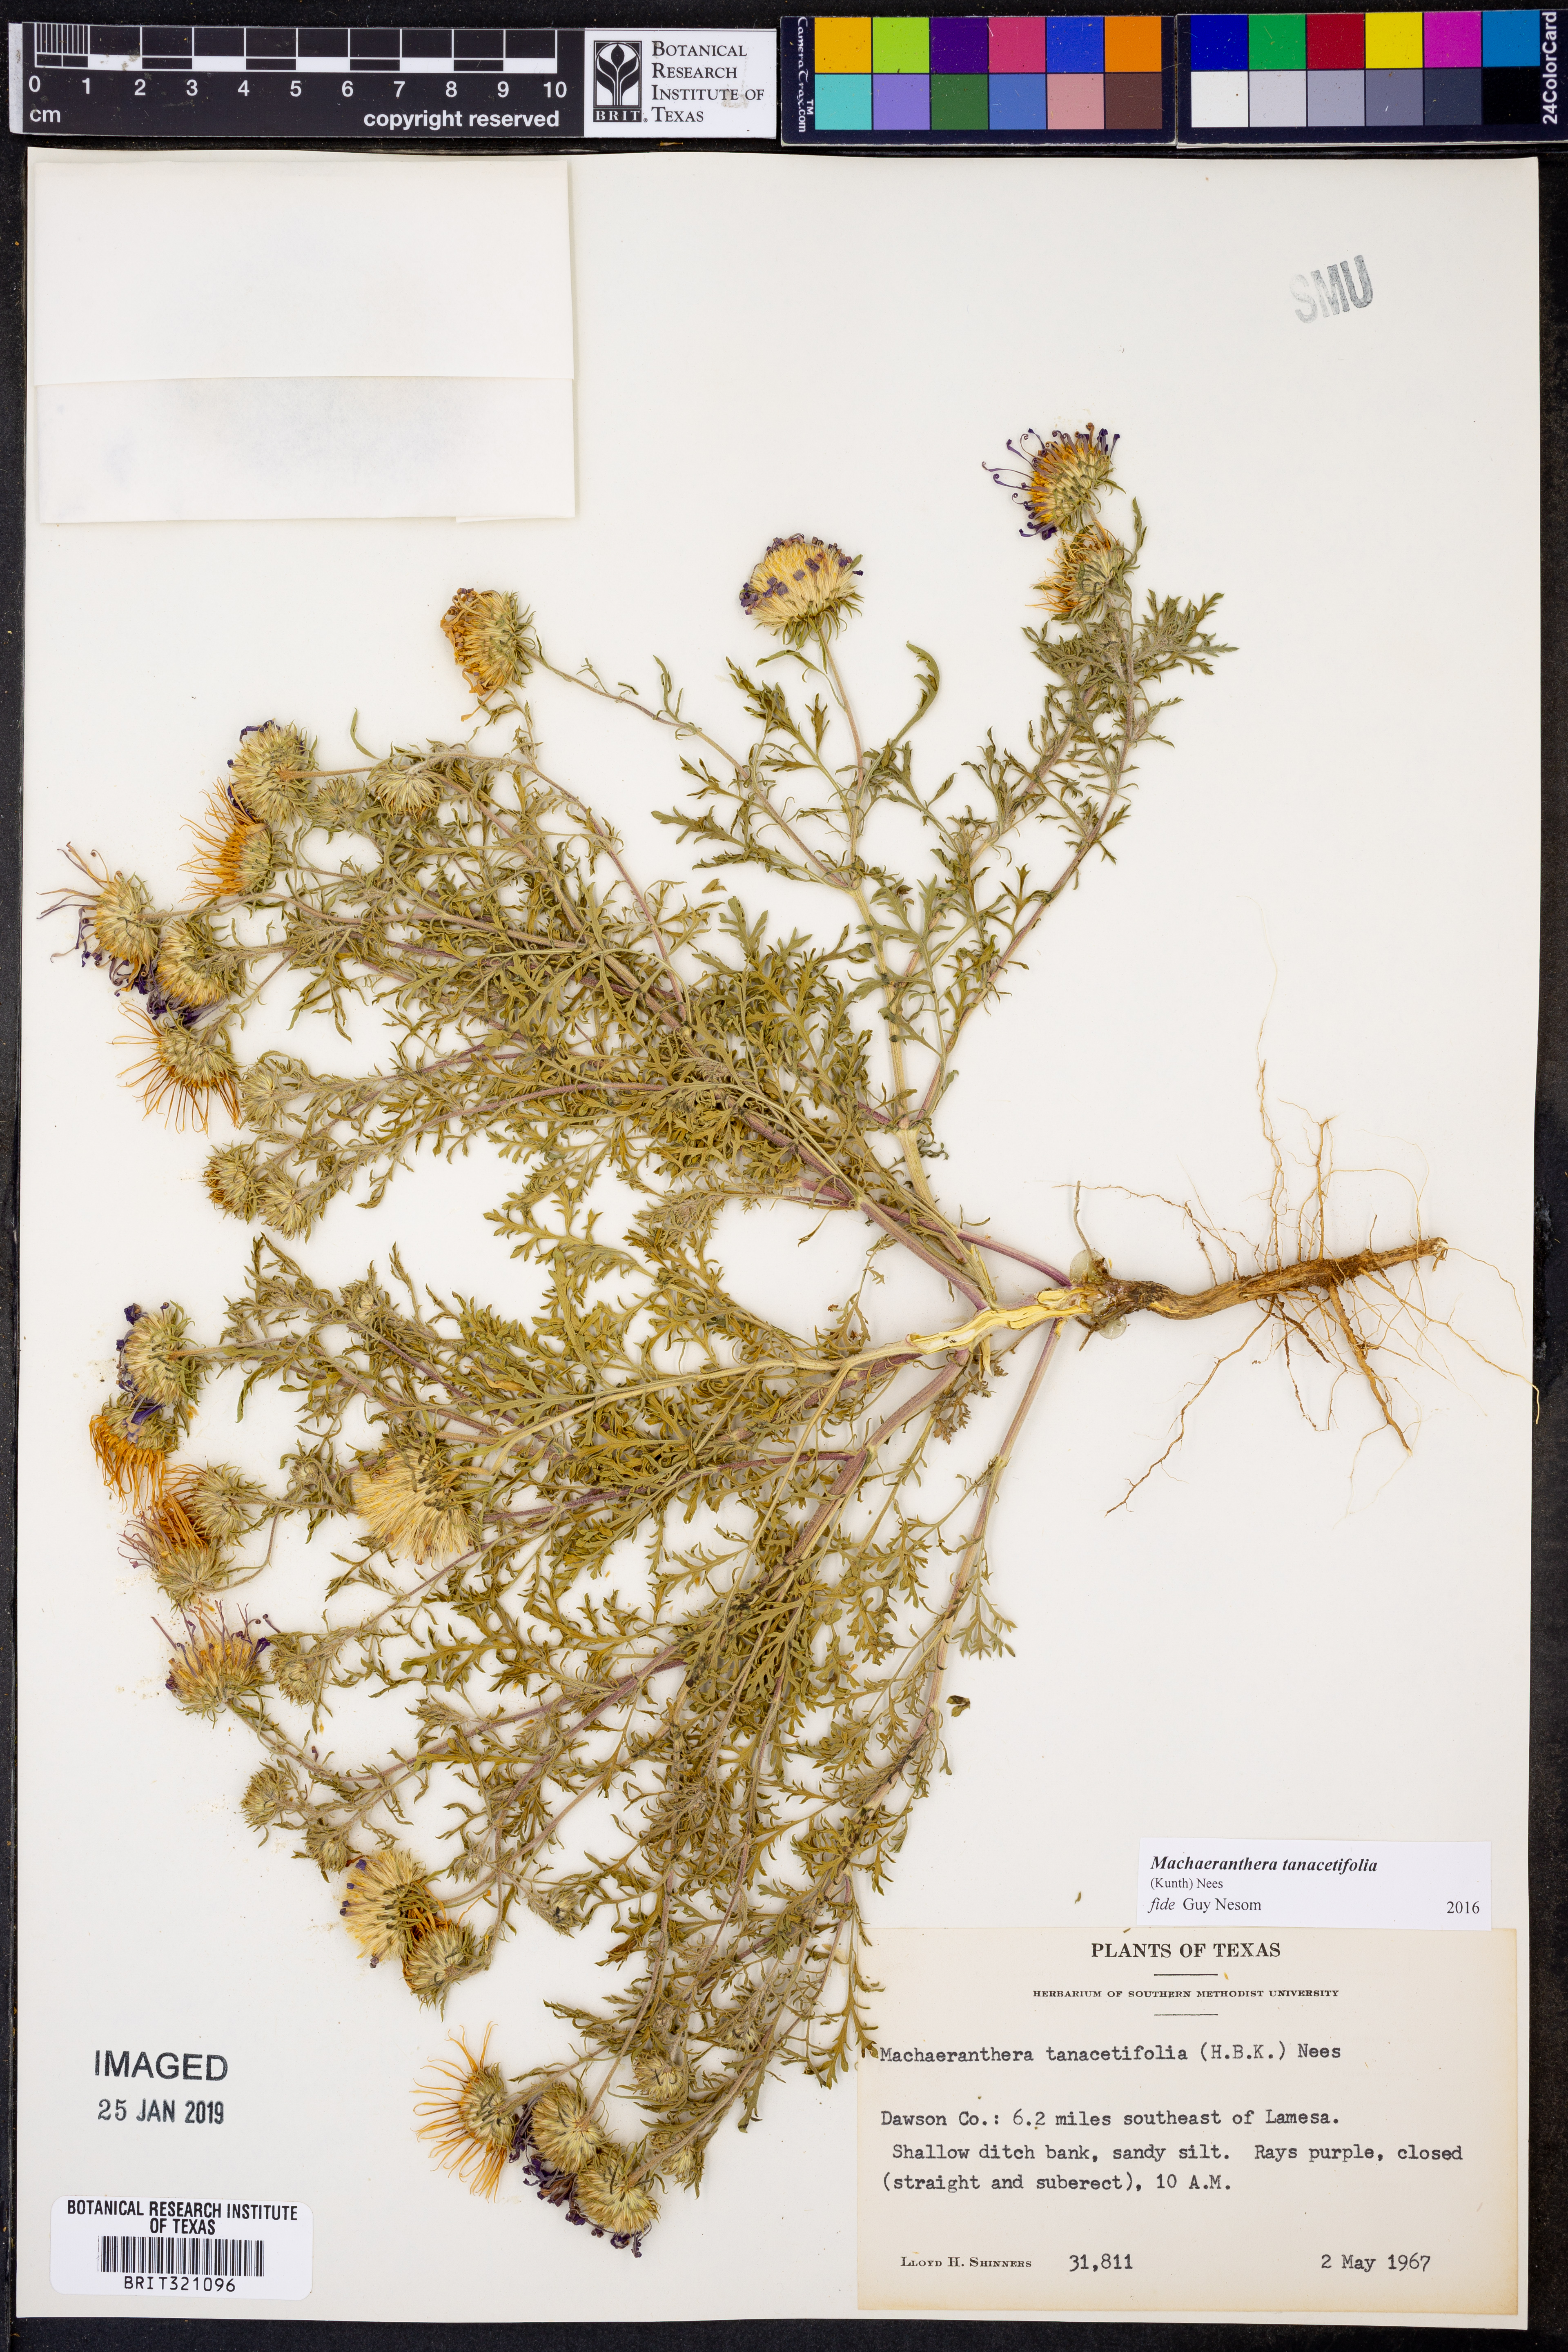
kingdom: Plantae
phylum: Tracheophyta
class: Magnoliopsida
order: Asterales
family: Asteraceae
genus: Machaeranthera
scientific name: Machaeranthera tanacetifolia
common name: Tansy-aster
